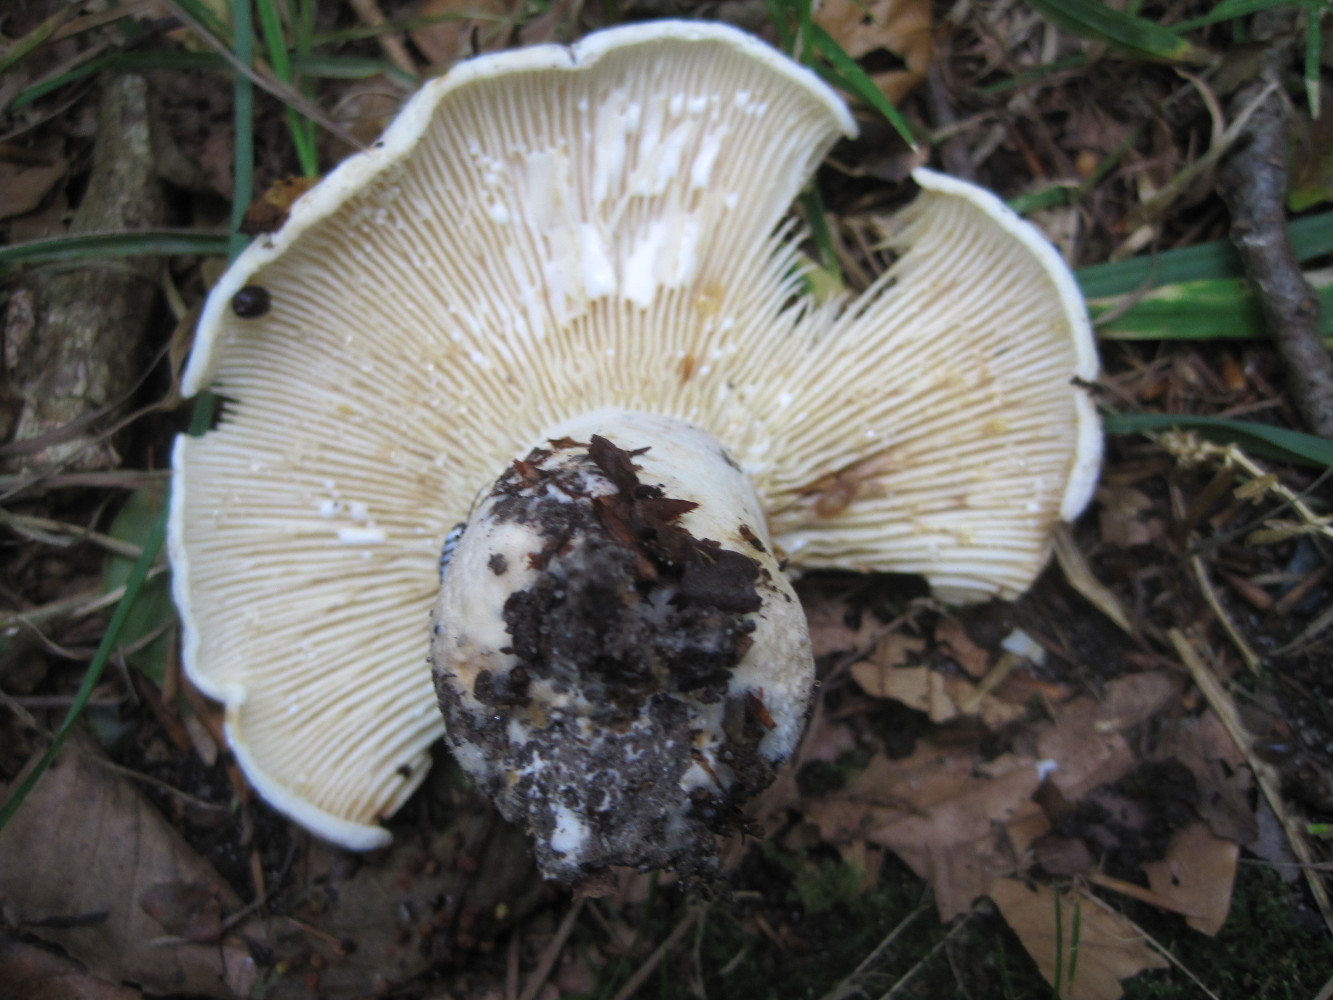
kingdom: Fungi
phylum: Basidiomycota
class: Agaricomycetes
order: Russulales
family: Russulaceae
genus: Lactifluus
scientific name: Lactifluus vellereus
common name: hvidfiltet mælkehat
